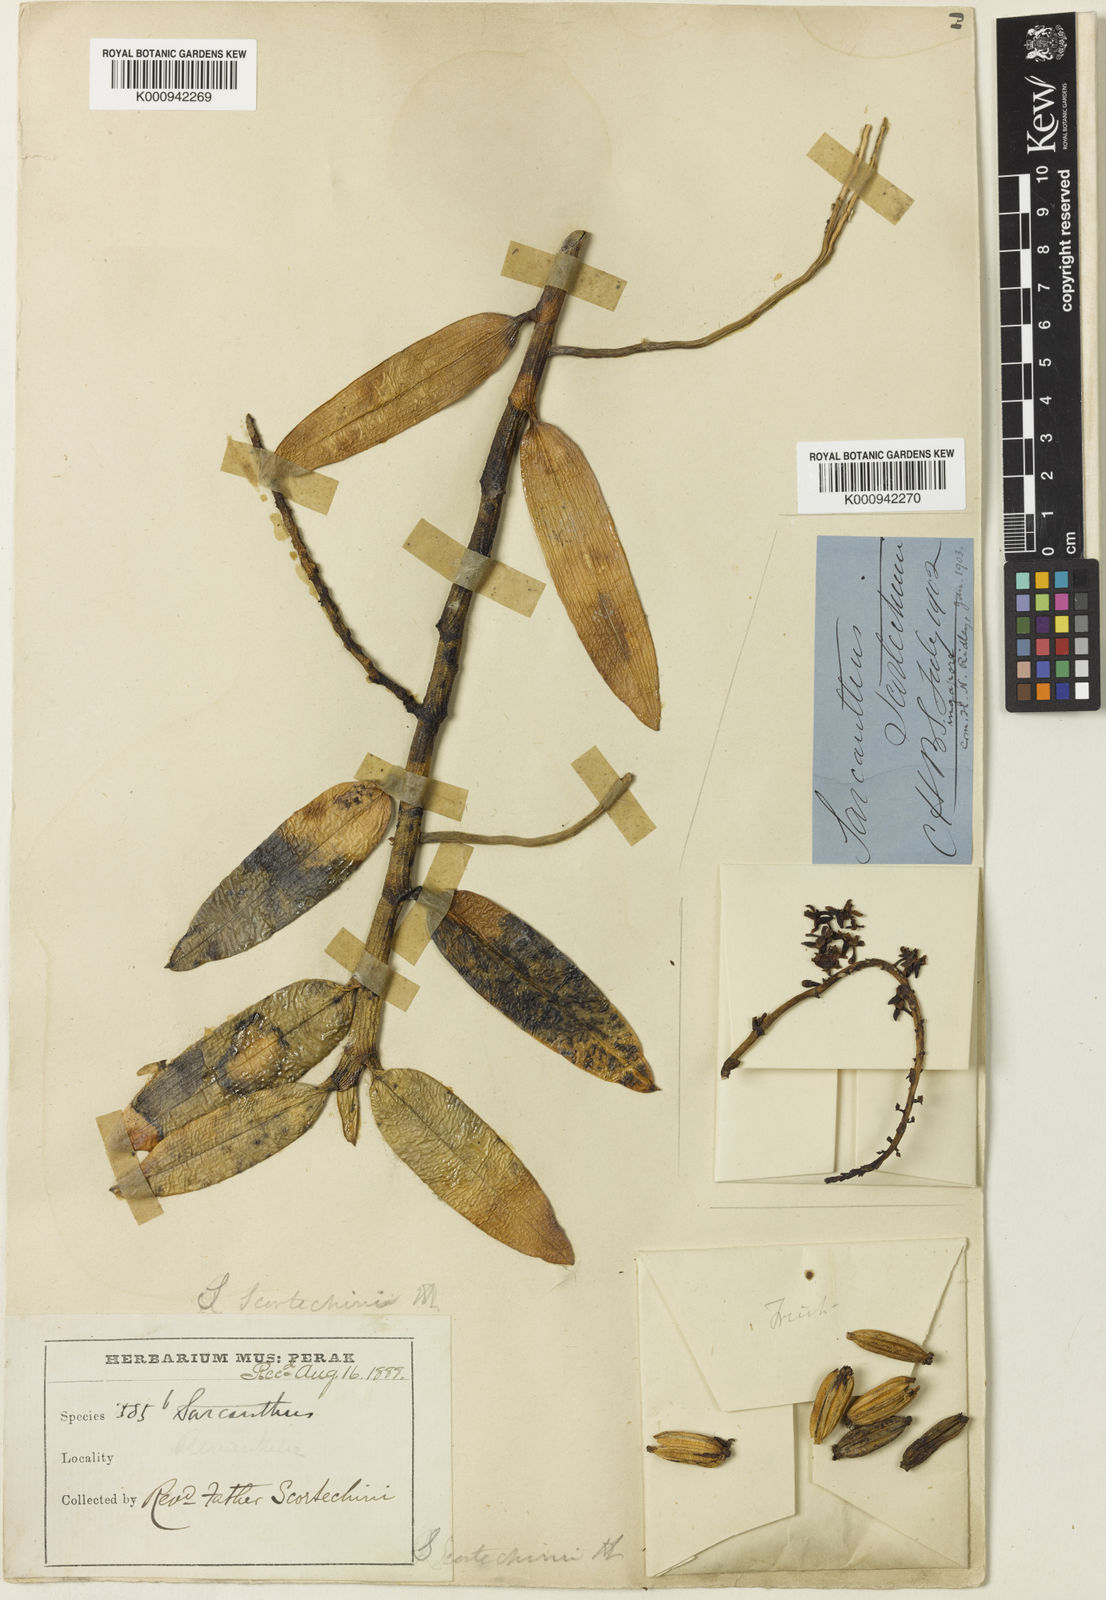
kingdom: Plantae
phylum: Tracheophyta
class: Liliopsida
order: Asparagales
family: Orchidaceae
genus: Cleisostoma
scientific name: Cleisostoma scortechinii
